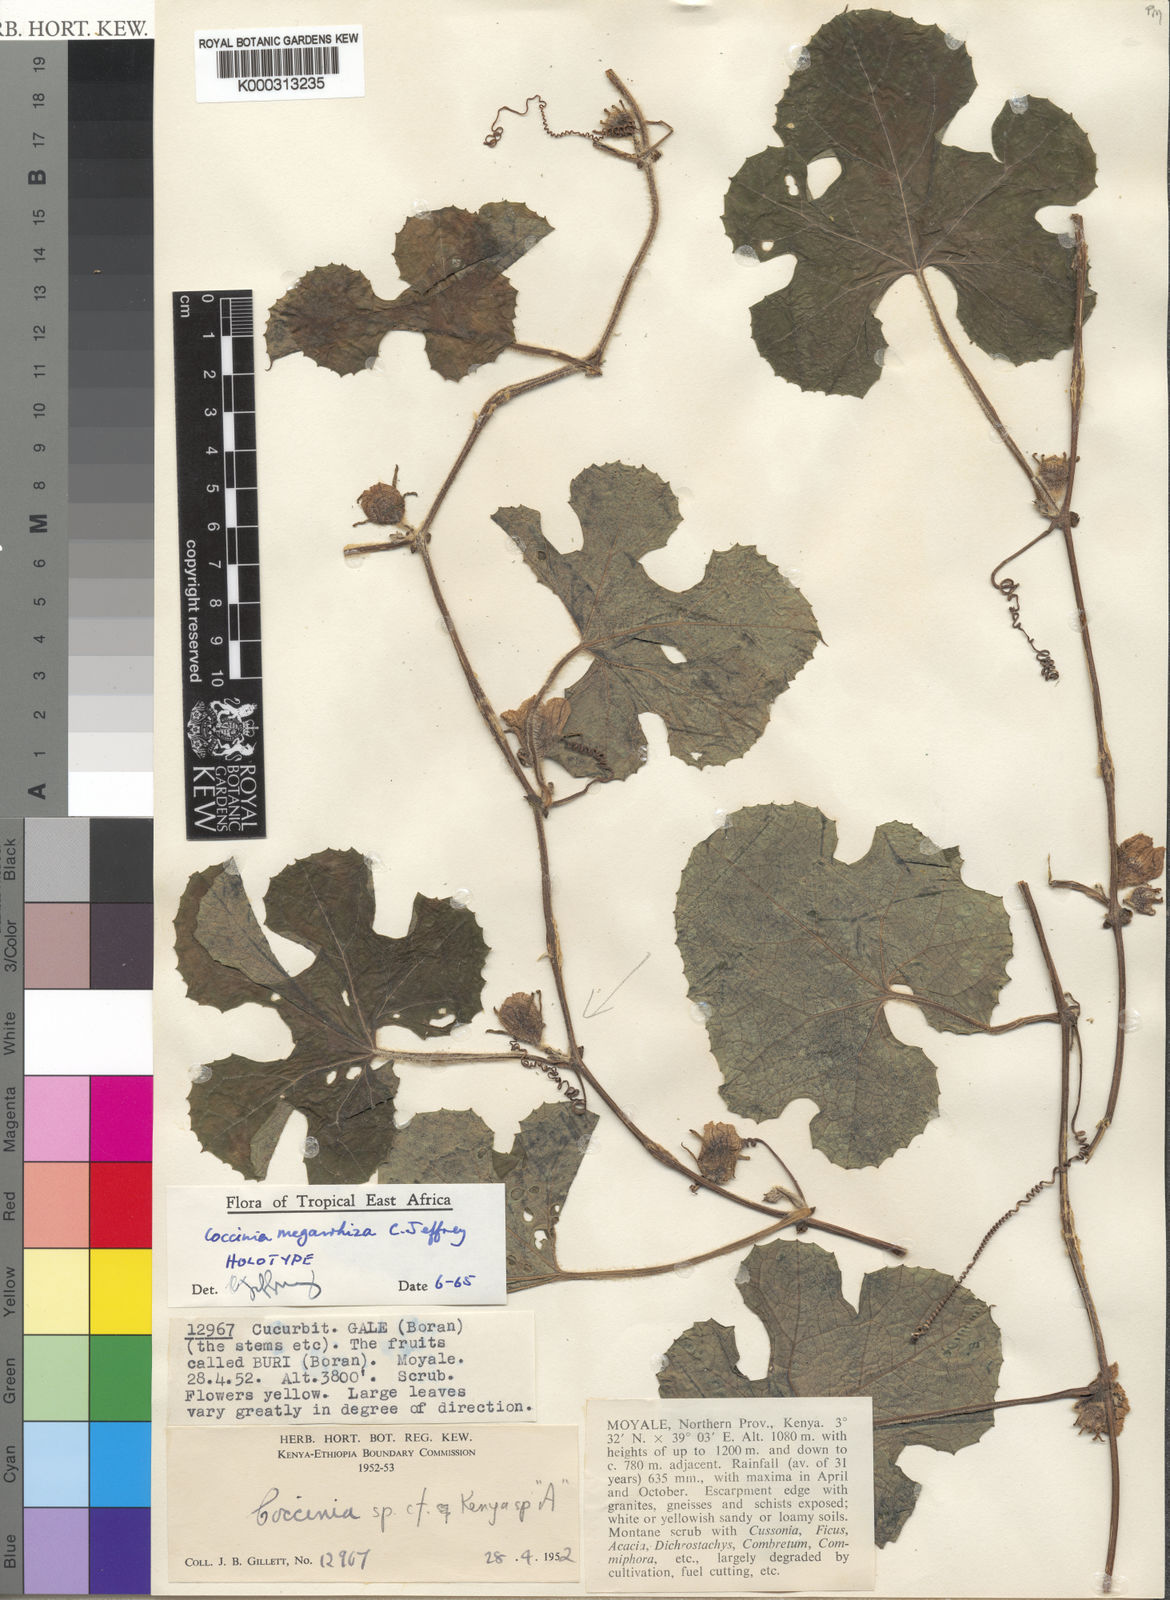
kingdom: Plantae
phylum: Tracheophyta
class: Magnoliopsida
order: Cucurbitales
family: Cucurbitaceae
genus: Coccinia
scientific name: Coccinia megarrhiza
